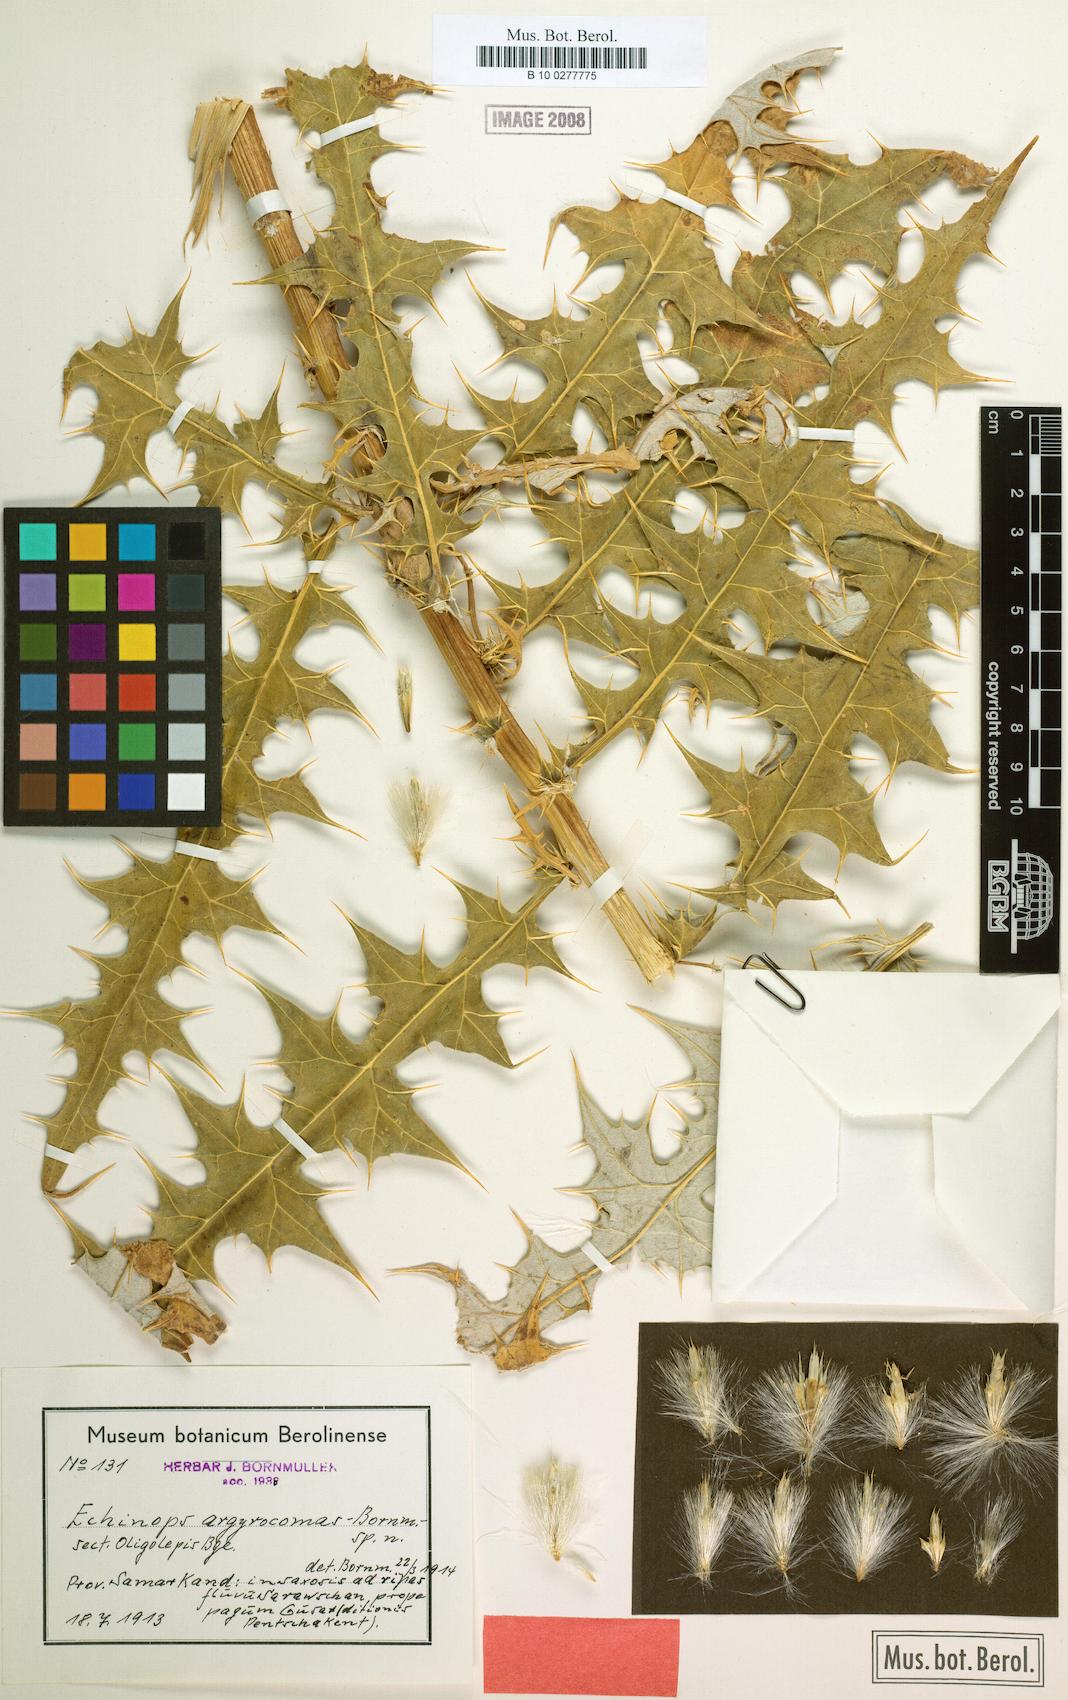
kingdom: Plantae
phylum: Tracheophyta
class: Magnoliopsida
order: Asterales
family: Asteraceae
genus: Echinops
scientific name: Echinops maracandicus
